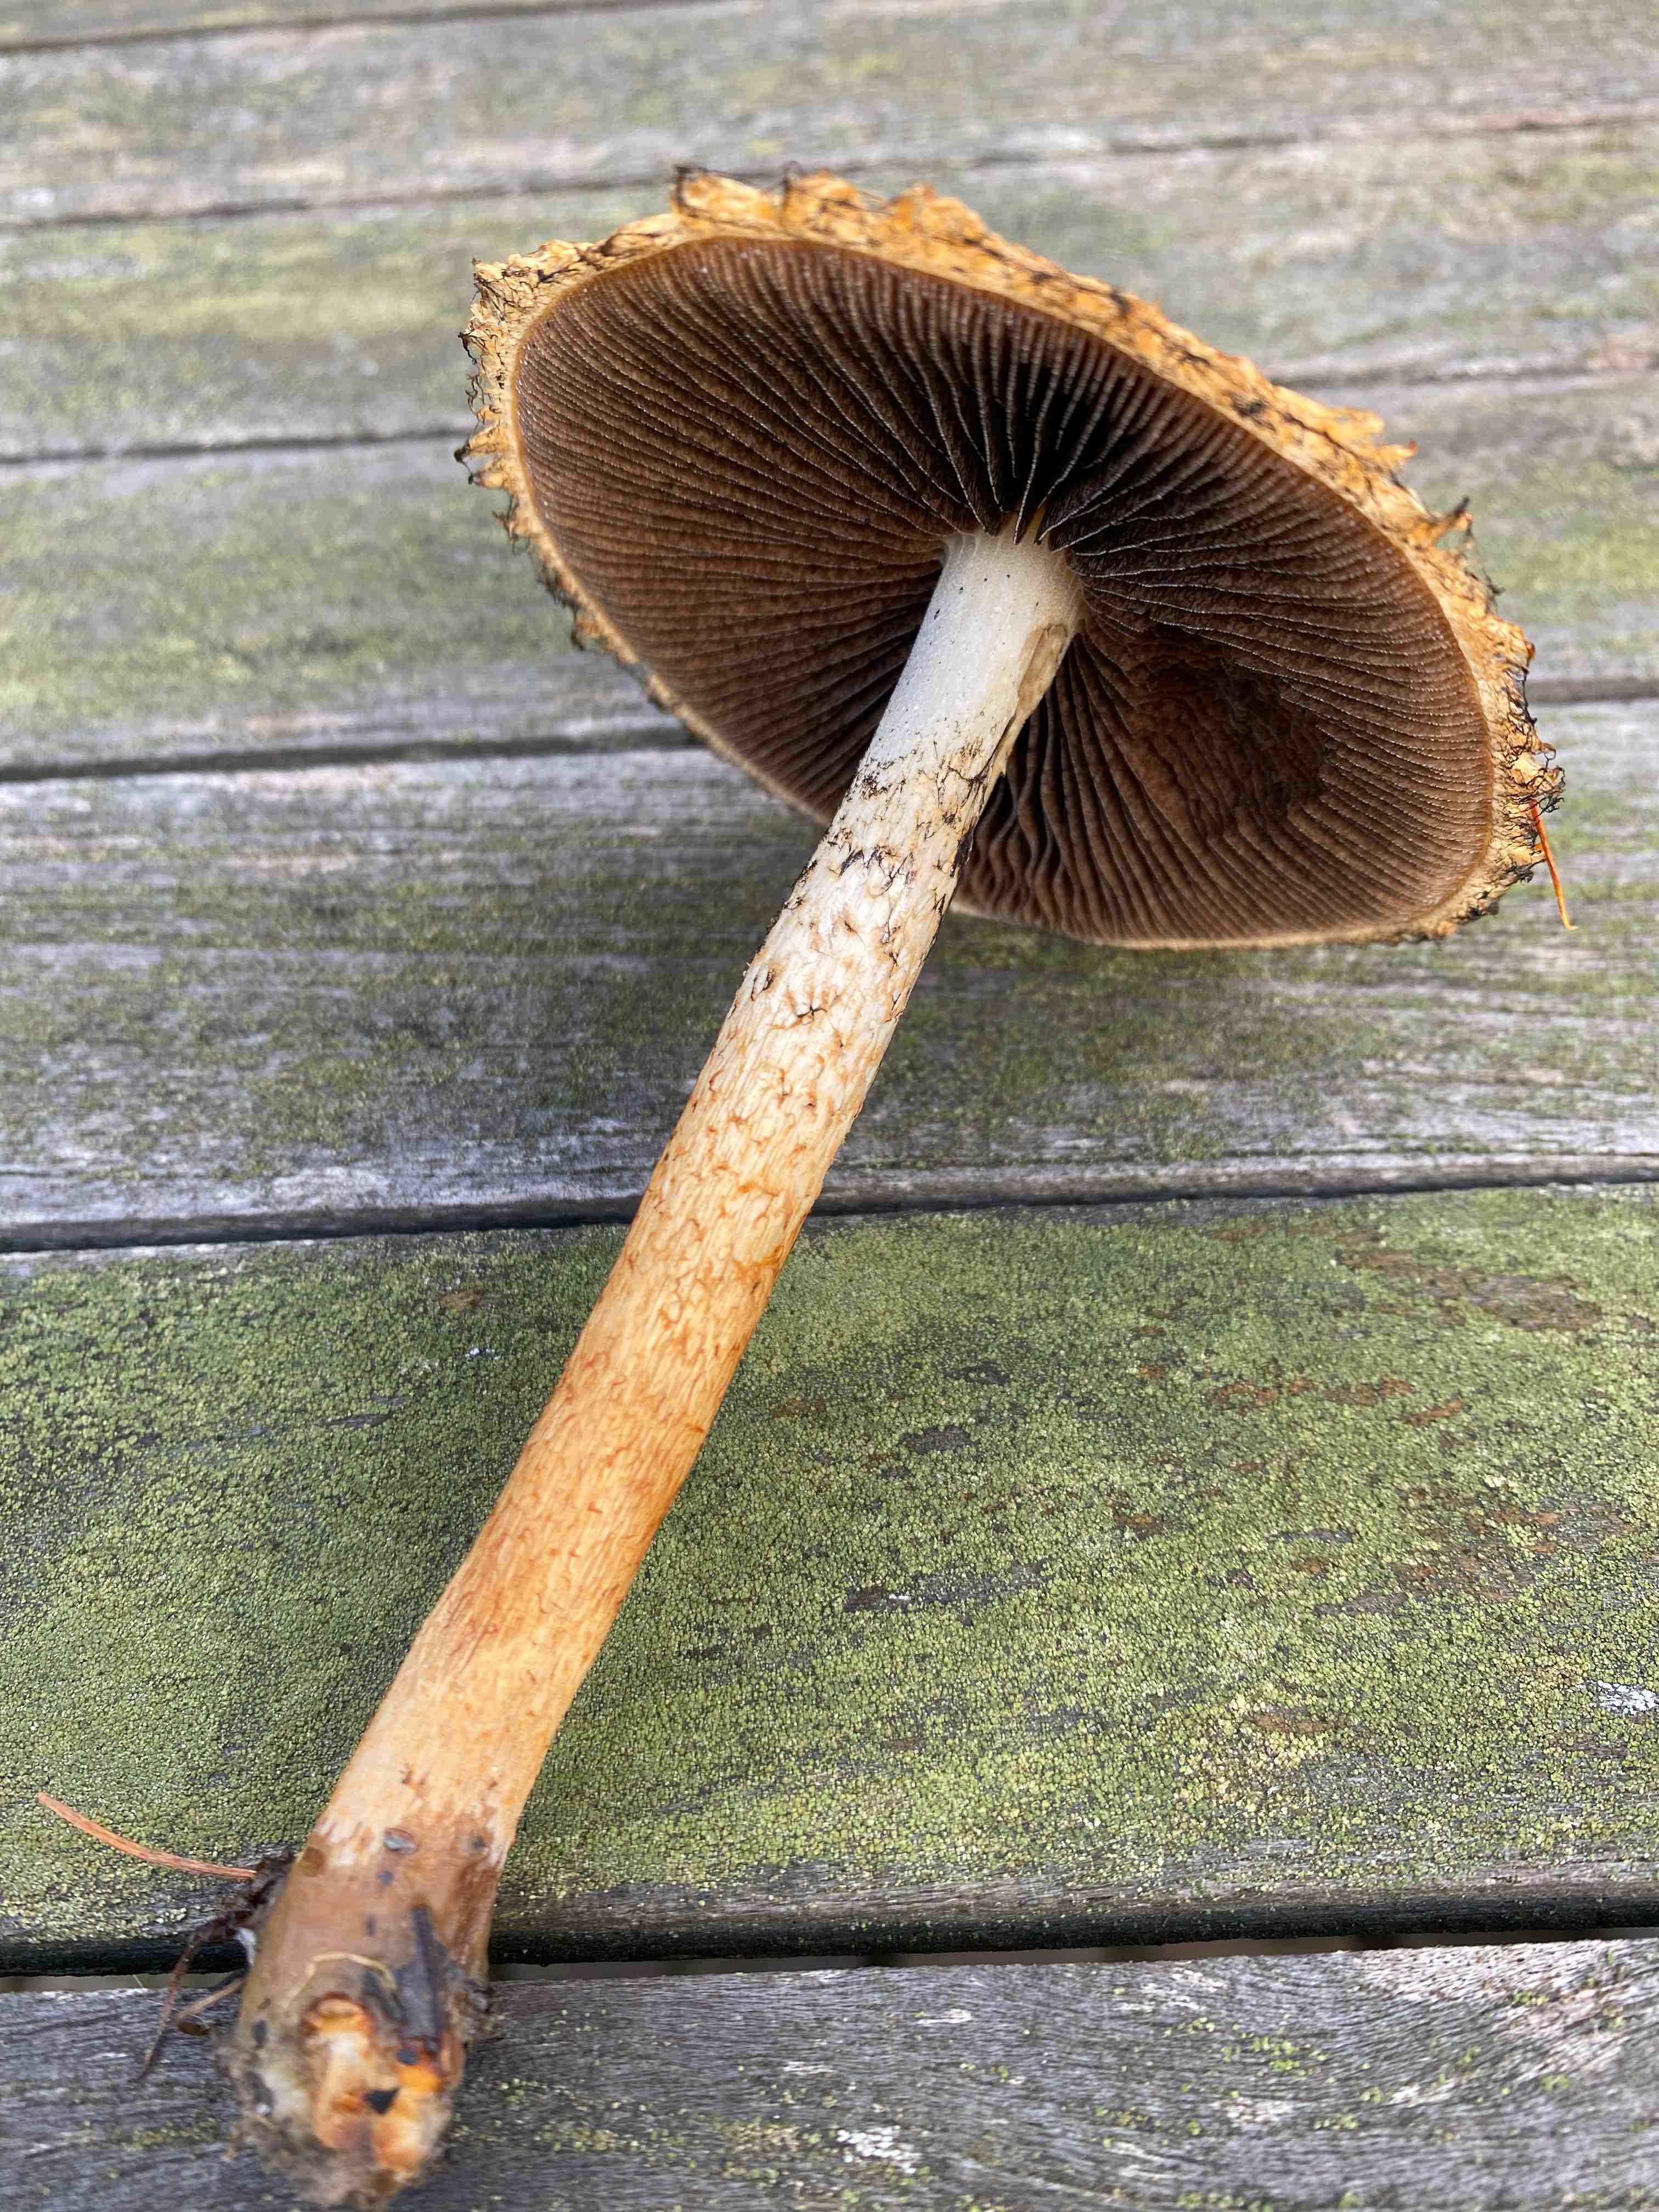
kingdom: Fungi
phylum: Basidiomycota
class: Agaricomycetes
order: Agaricales
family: Psathyrellaceae
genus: Lacrymaria
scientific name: Lacrymaria pyrotricha
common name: ildhåret mørkhat
